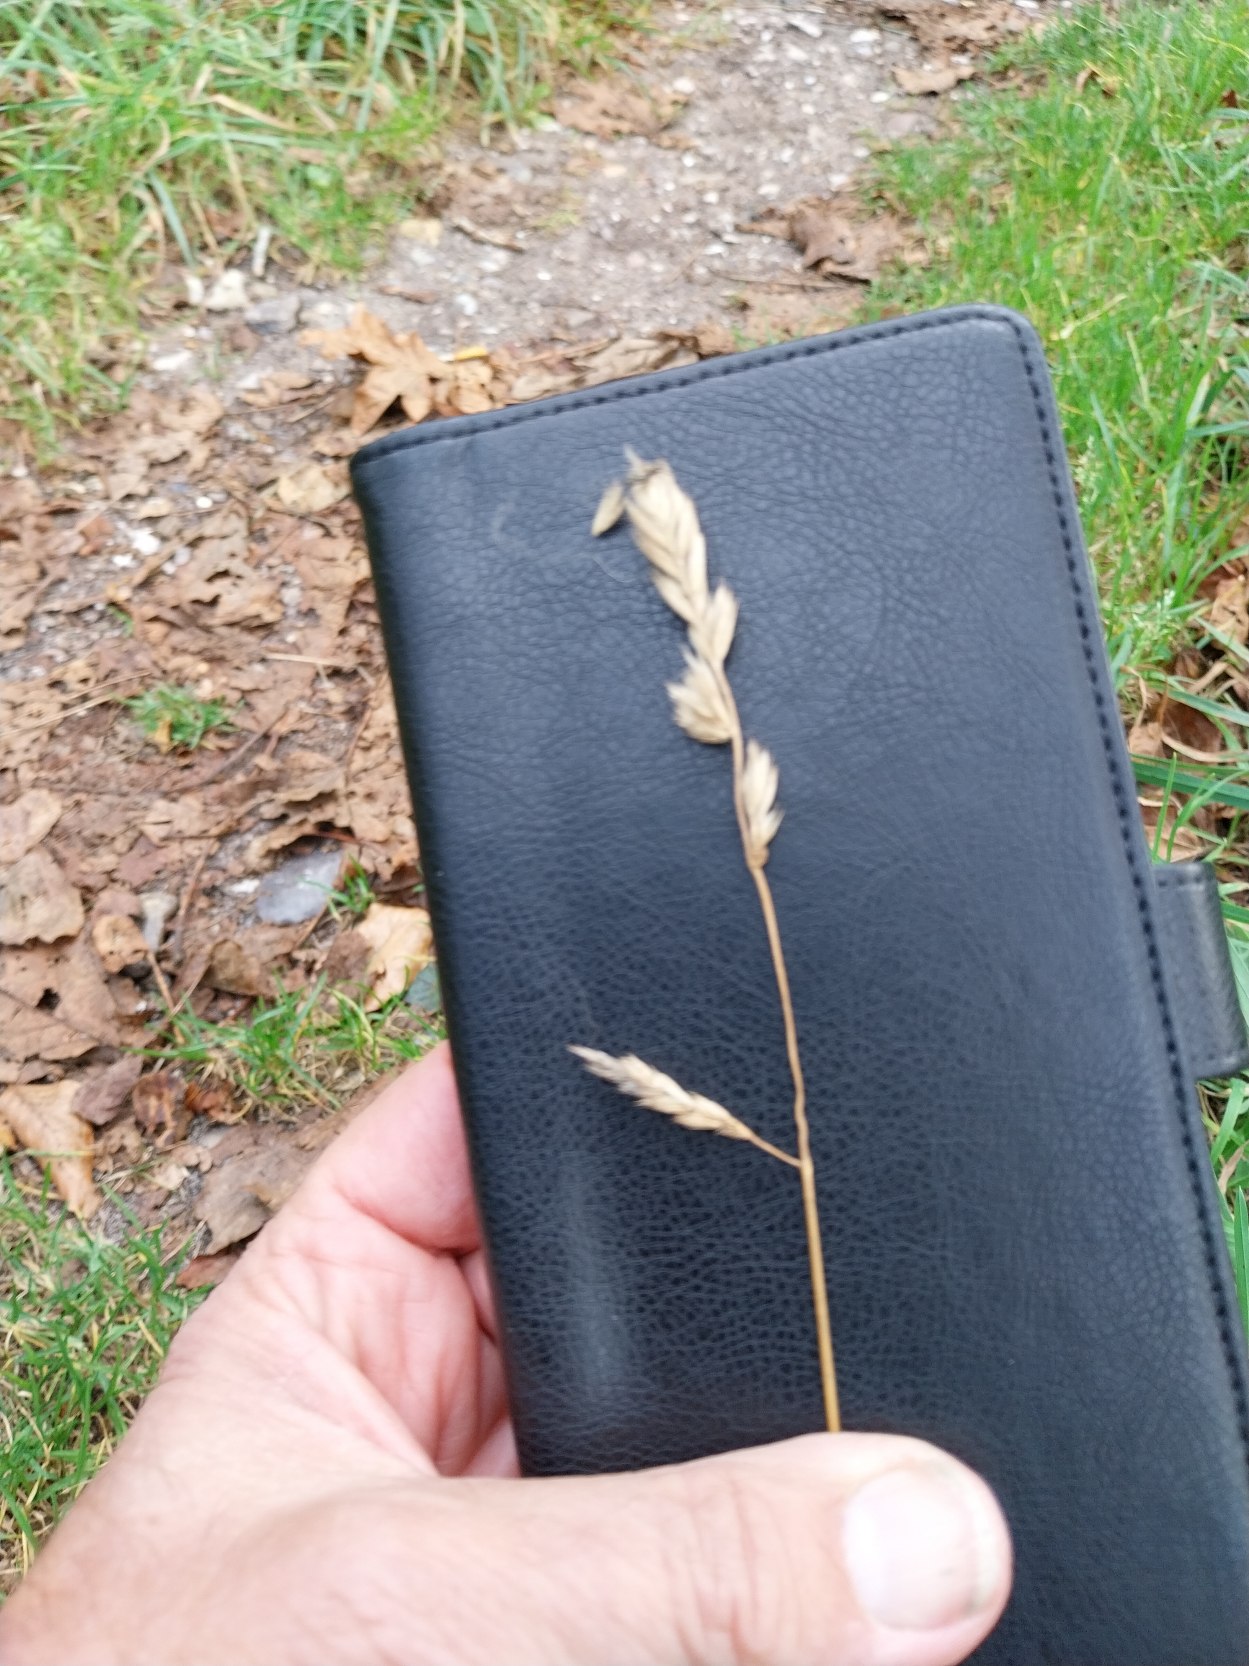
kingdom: Plantae
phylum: Tracheophyta
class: Liliopsida
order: Poales
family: Poaceae
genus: Dactylis
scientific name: Dactylis glomerata
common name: Almindelig hundegræs
